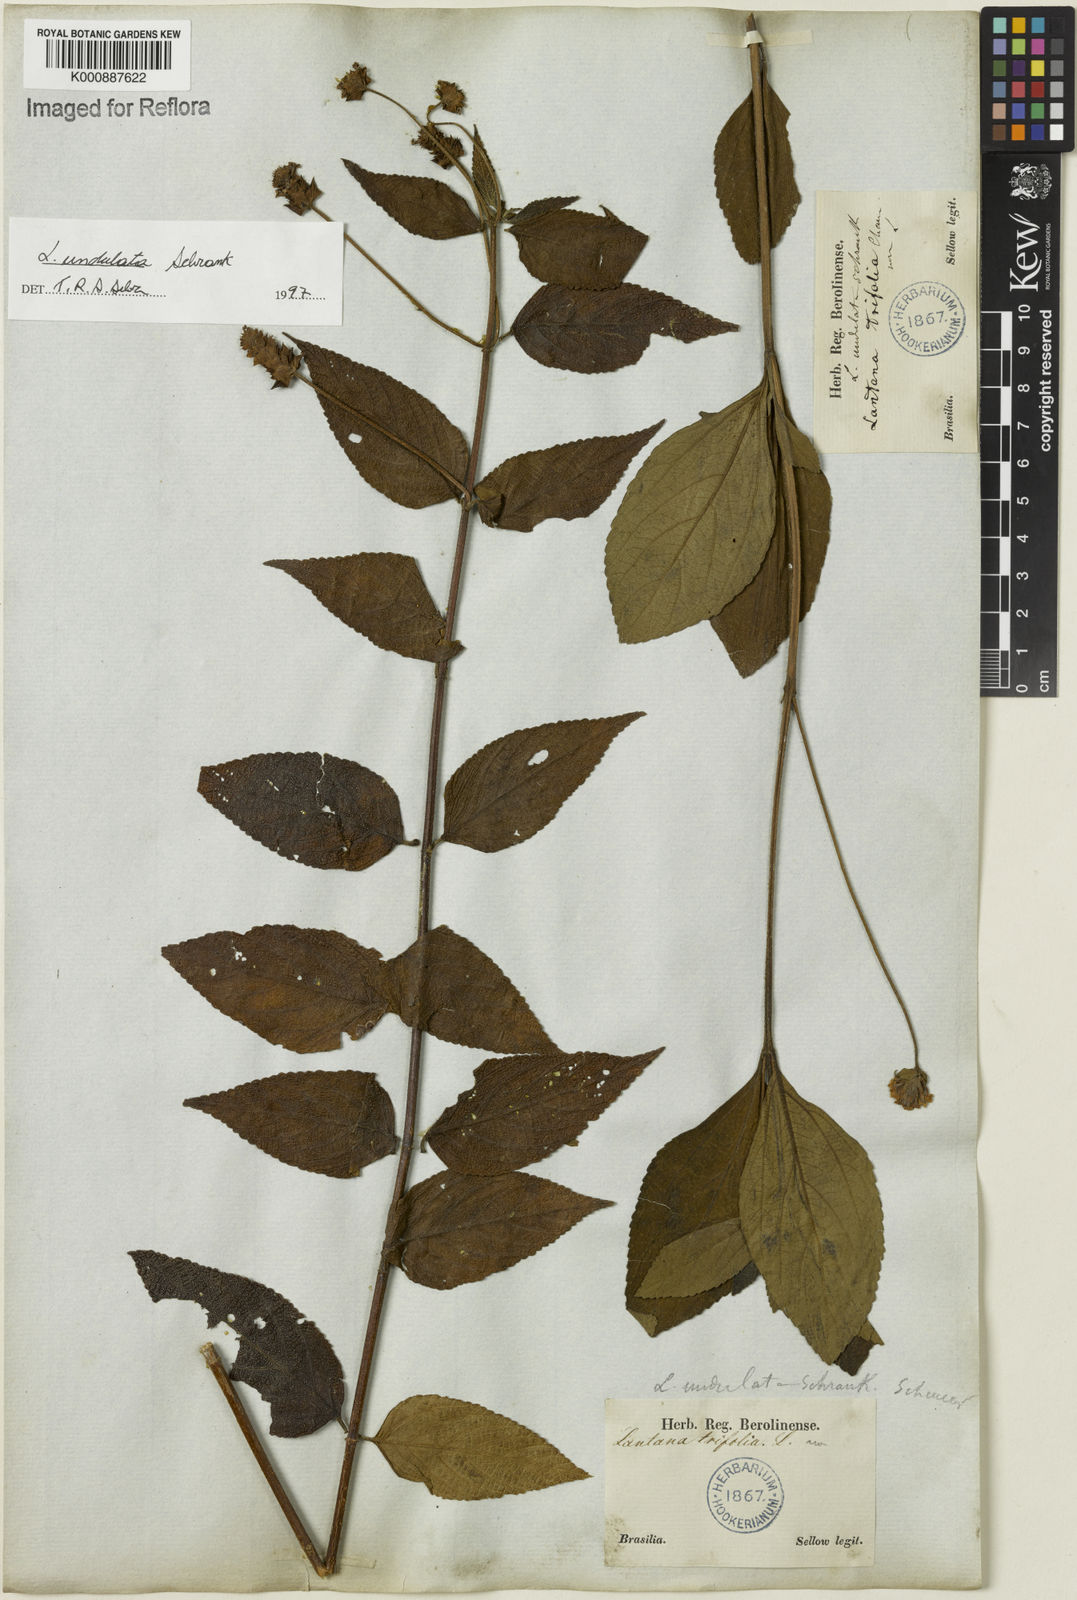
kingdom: Plantae
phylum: Tracheophyta
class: Magnoliopsida
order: Lamiales
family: Verbenaceae
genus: Lantana
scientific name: Lantana undulata
